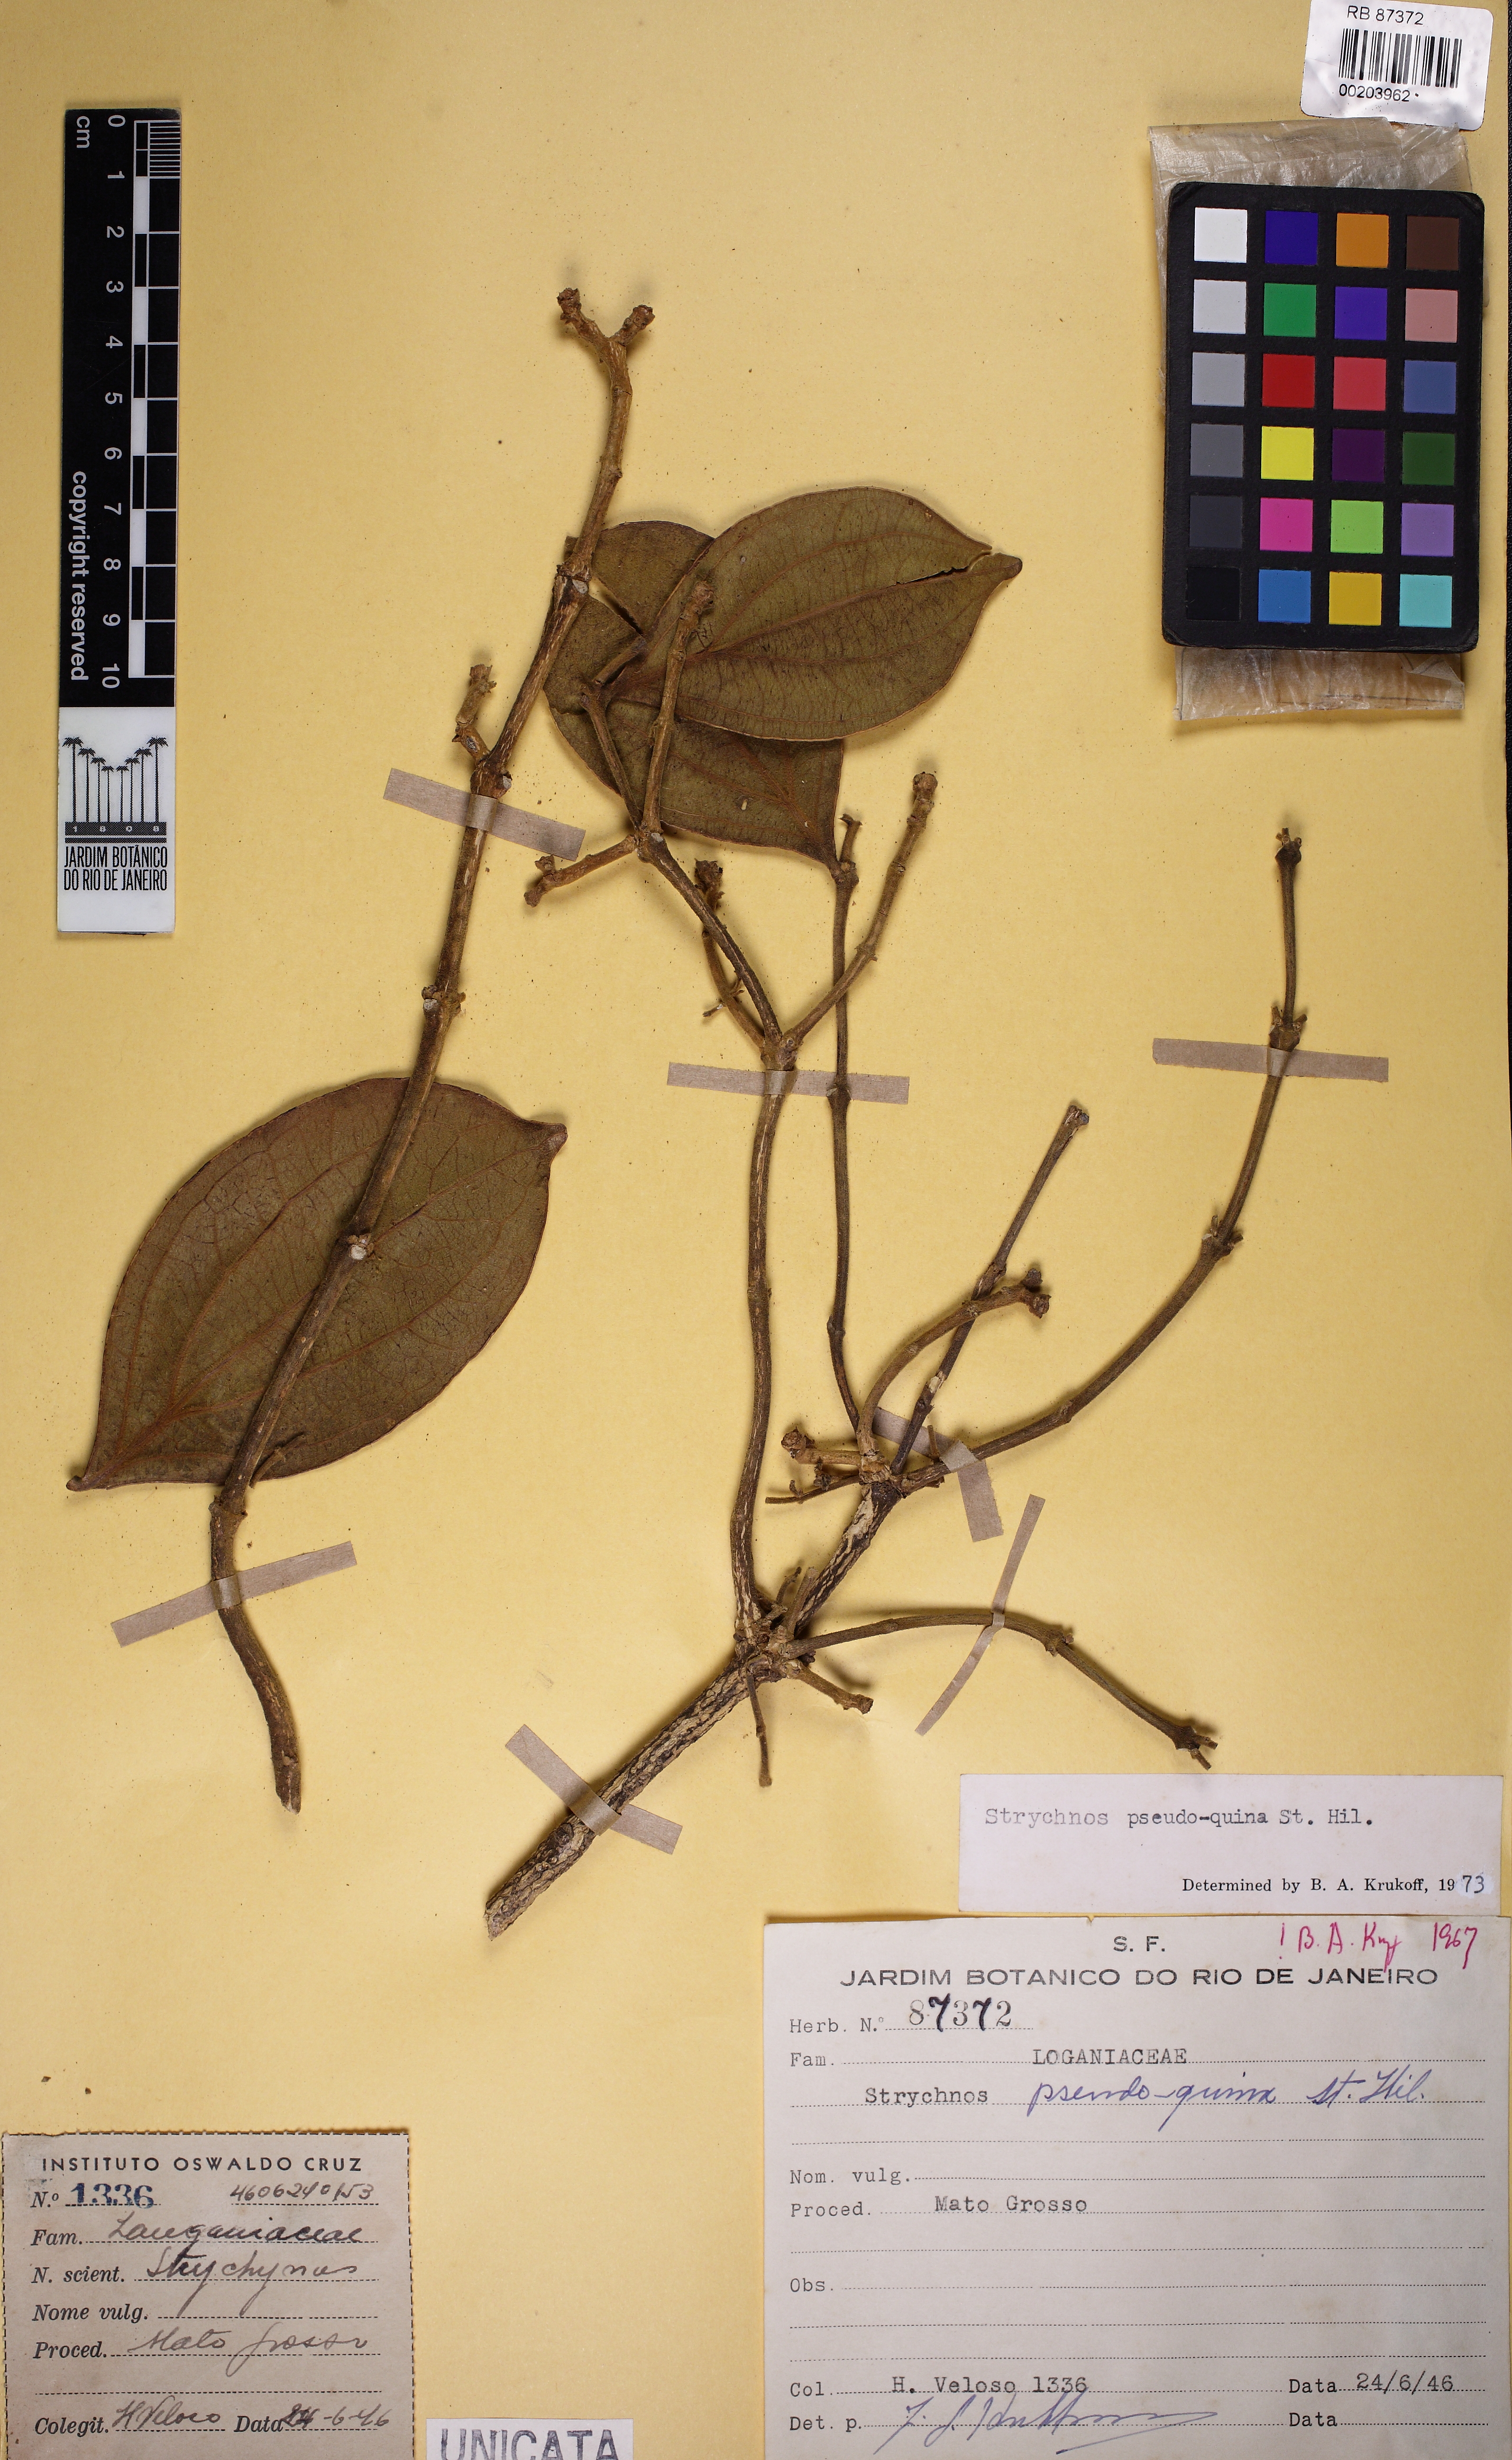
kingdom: Plantae
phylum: Tracheophyta
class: Magnoliopsida
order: Gentianales
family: Loganiaceae
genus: Strychnos
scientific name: Strychnos pseudoquina
